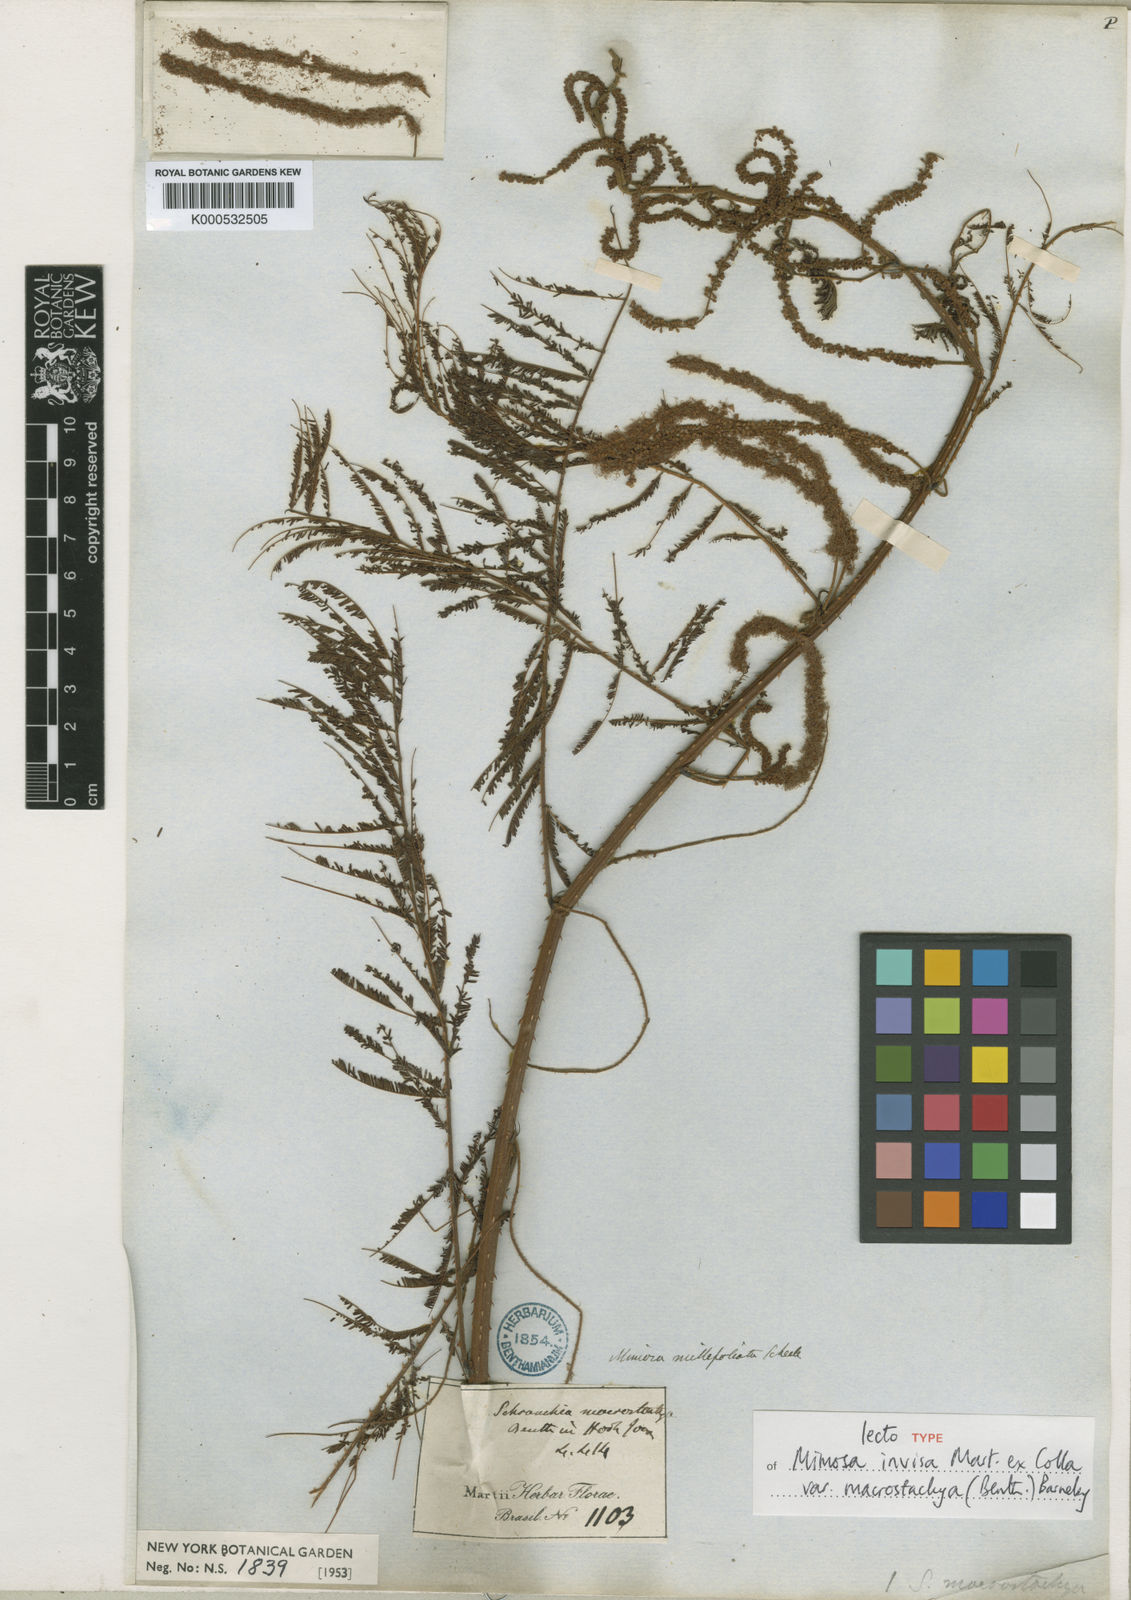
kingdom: Plantae
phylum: Tracheophyta
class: Magnoliopsida
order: Fabales
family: Fabaceae
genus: Mimosa
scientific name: Mimosa invisa
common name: Creeping sensitive-plant
